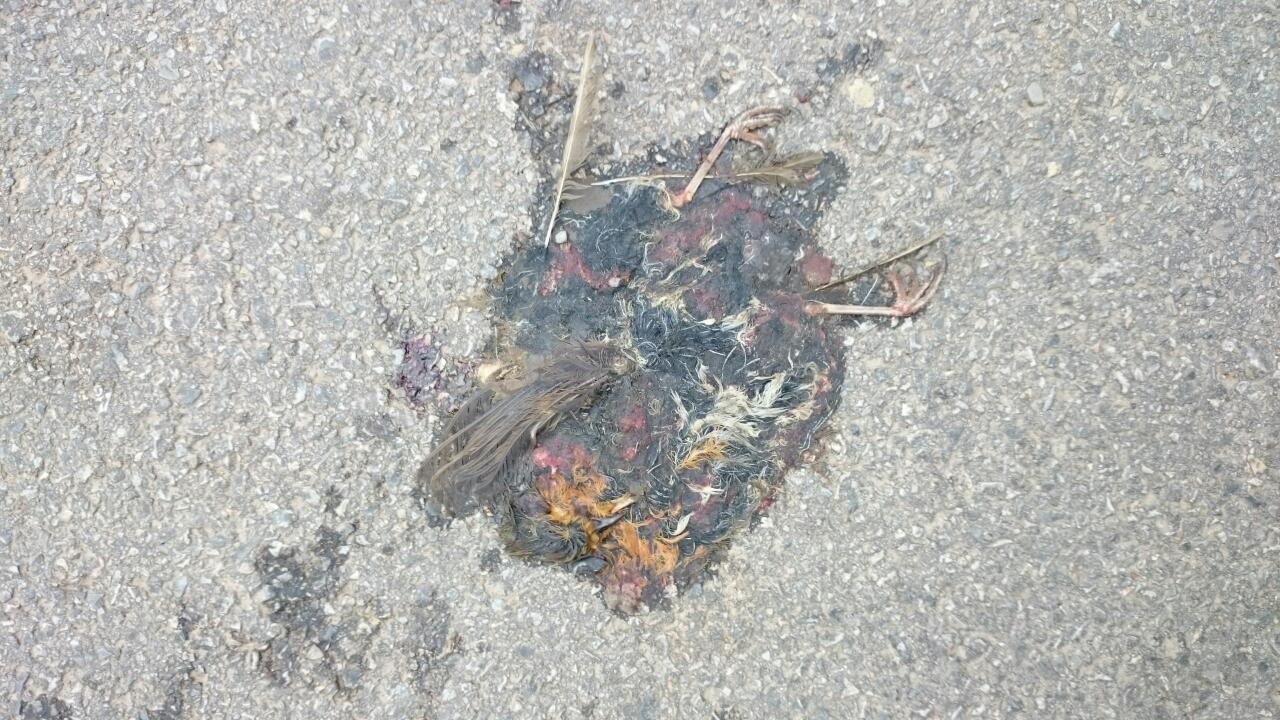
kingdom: Animalia
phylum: Chordata
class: Aves
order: Passeriformes
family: Muscicapidae
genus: Erithacus
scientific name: Erithacus rubecula
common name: European robin
